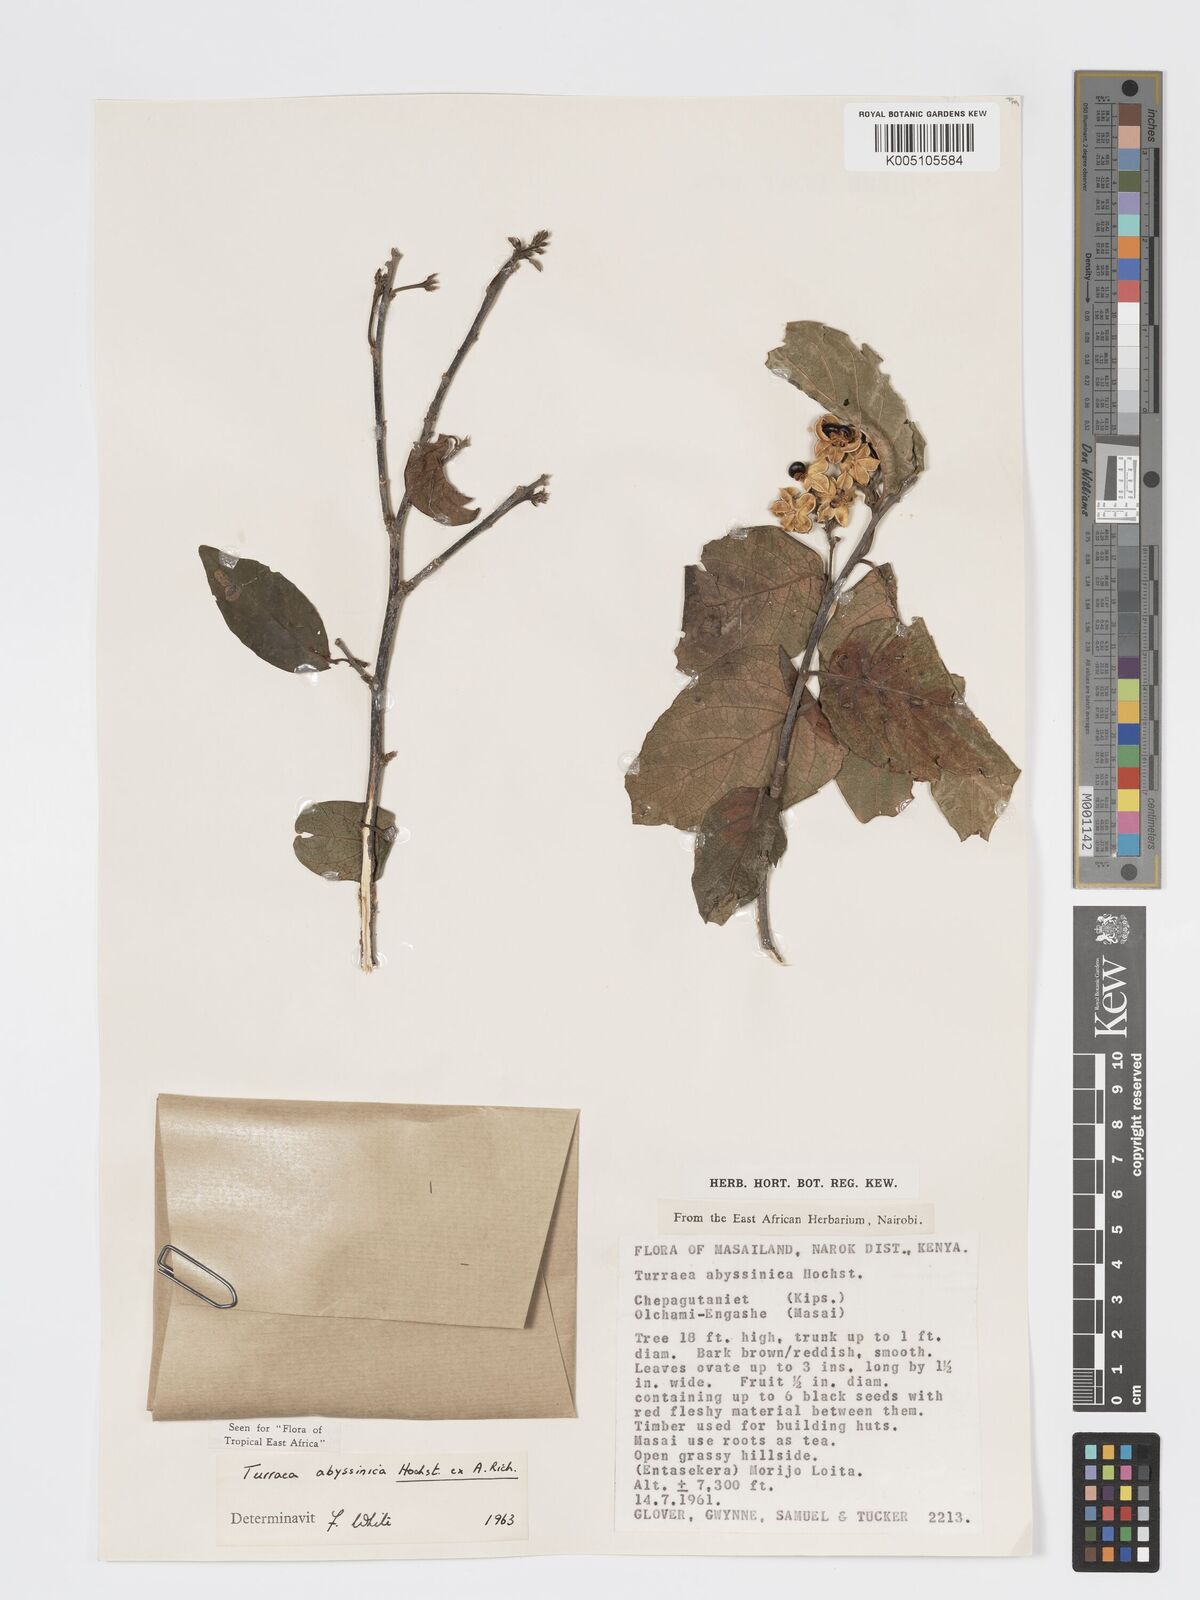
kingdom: Plantae
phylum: Tracheophyta
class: Magnoliopsida
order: Sapindales
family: Meliaceae
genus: Turraea
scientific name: Turraea abyssinica
